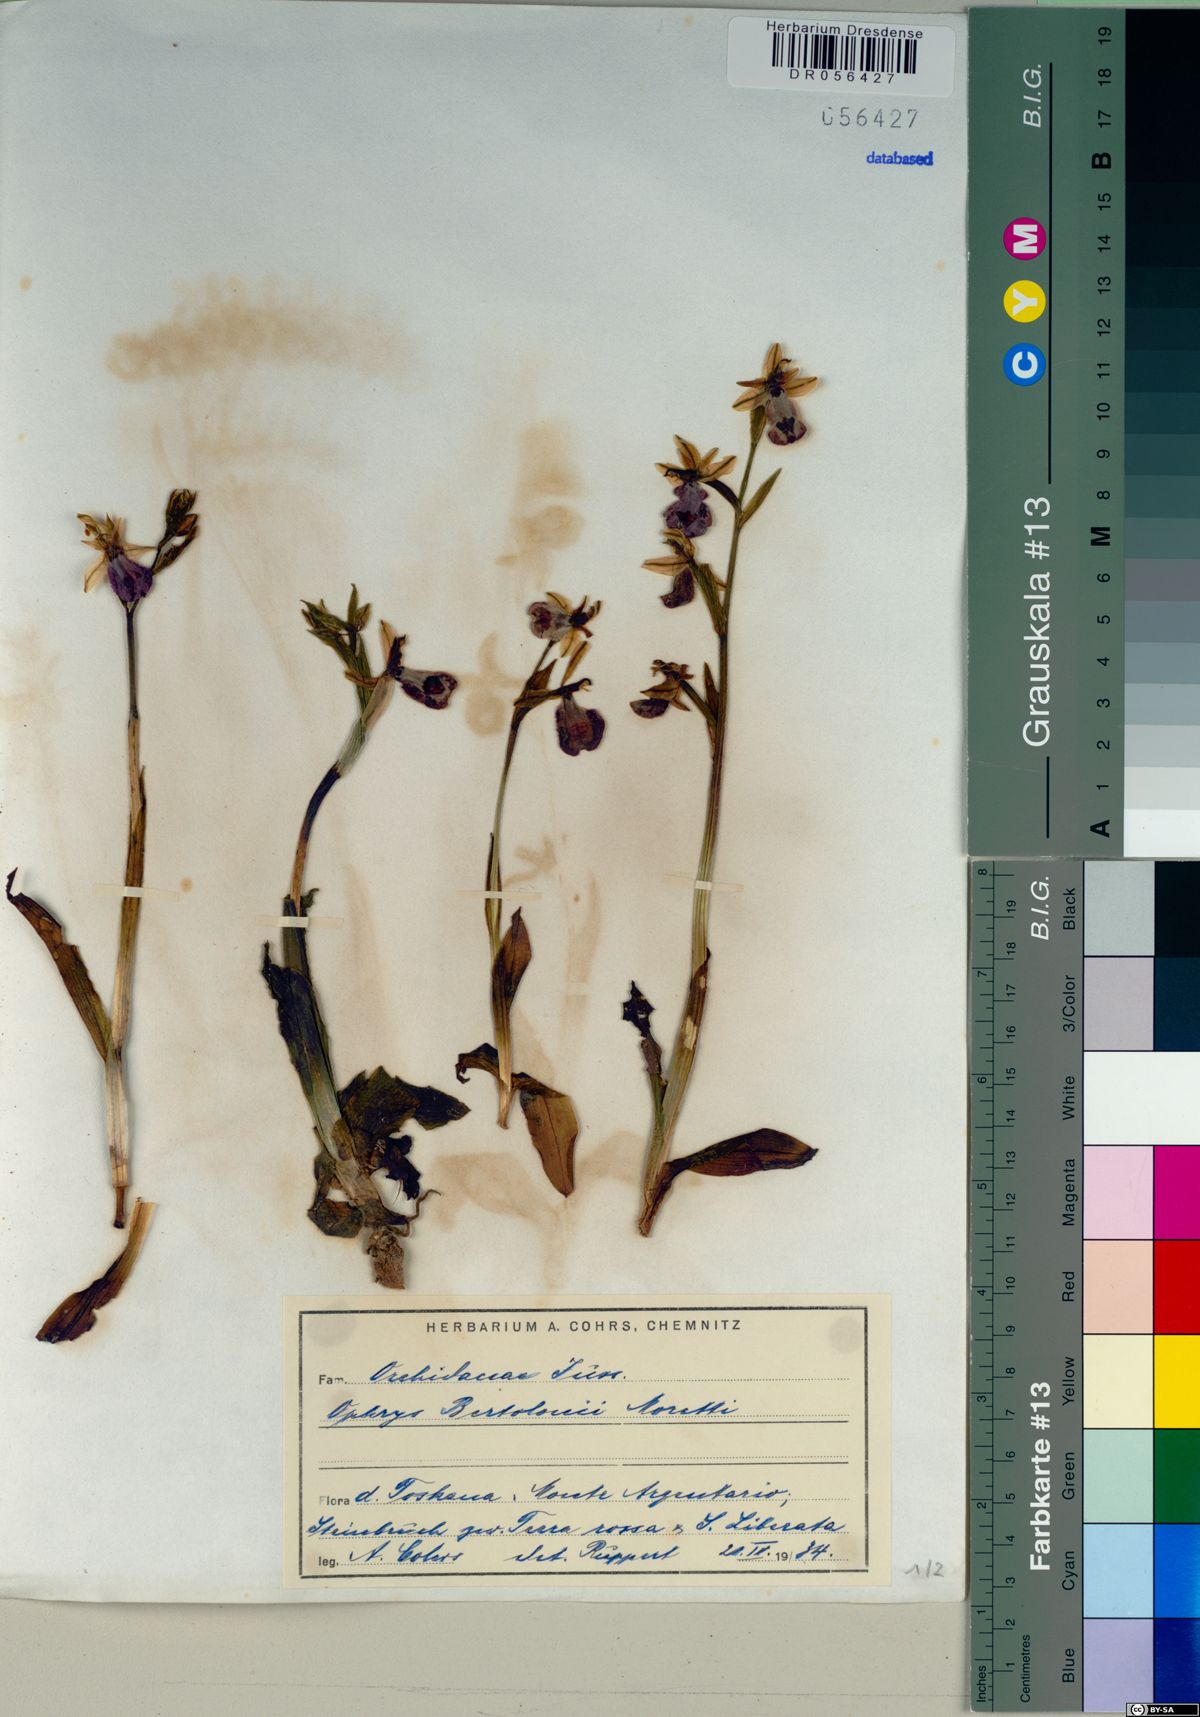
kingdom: Plantae
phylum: Tracheophyta
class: Liliopsida
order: Asparagales
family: Orchidaceae
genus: Ophrys
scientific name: Ophrys bertolonii
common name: Bertoloni's bee orchid
